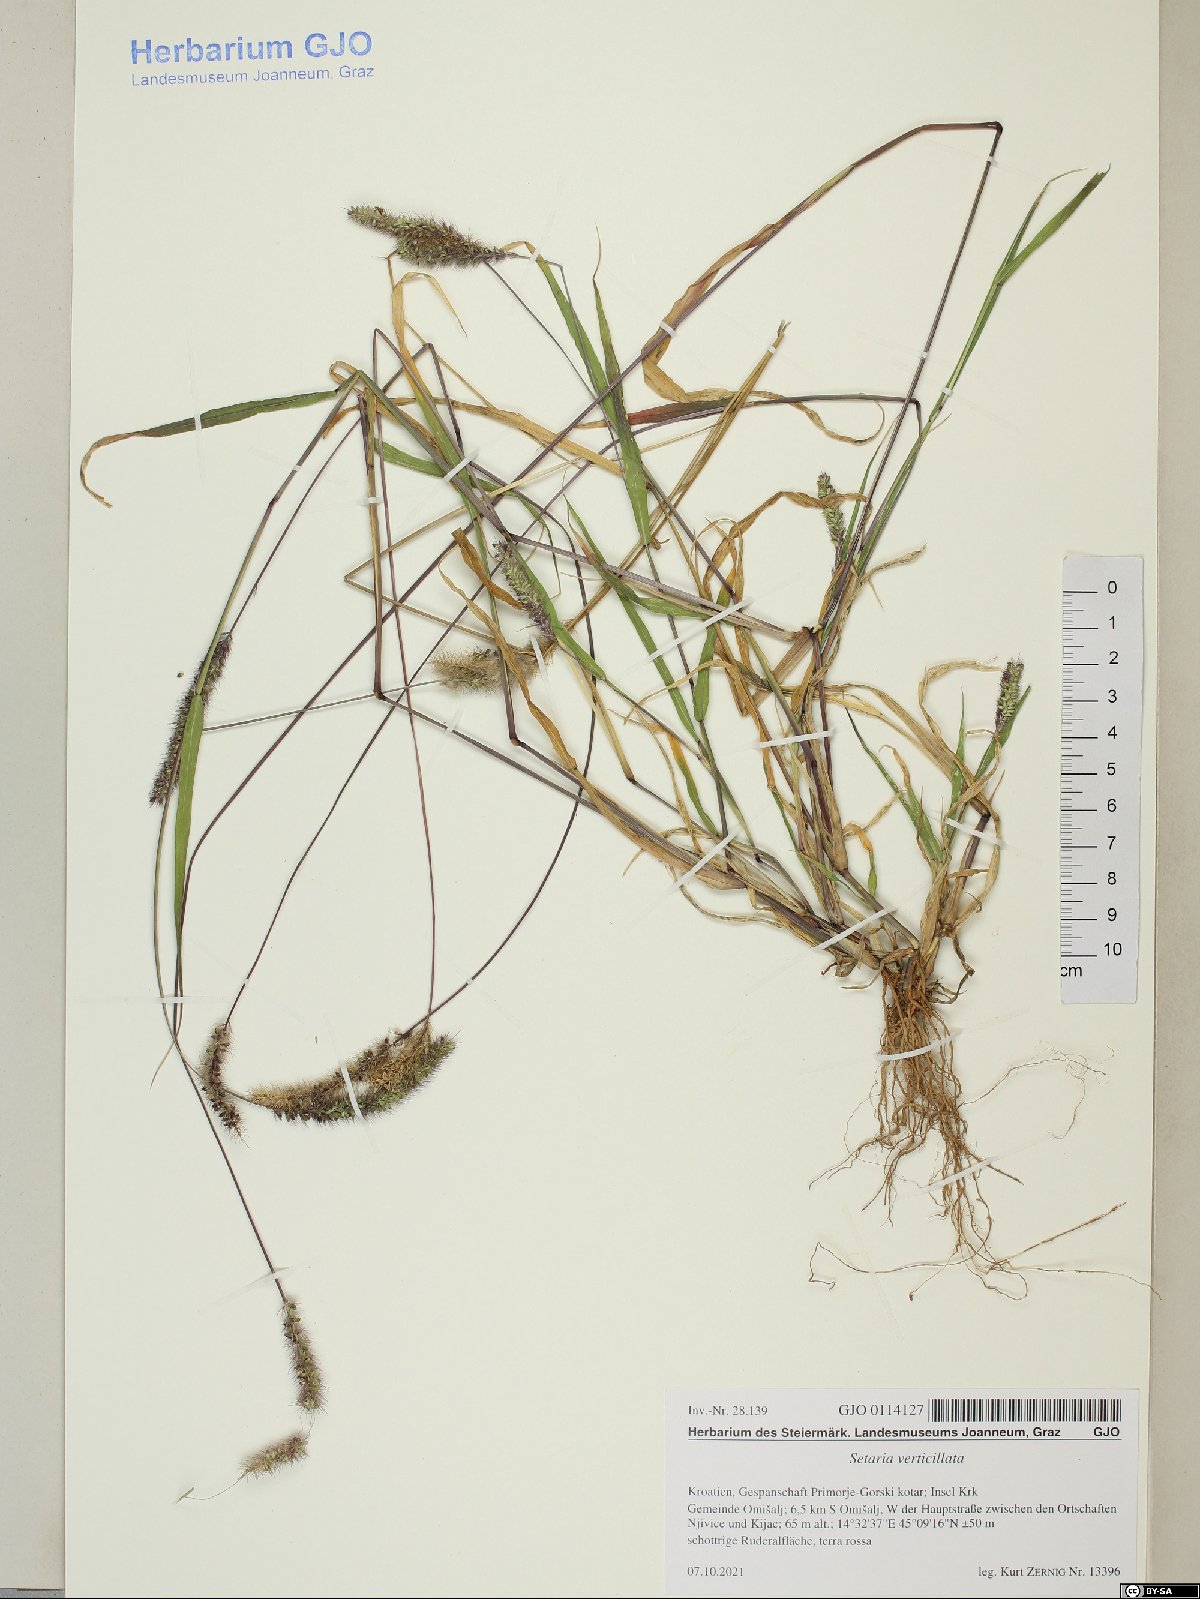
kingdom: Plantae
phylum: Tracheophyta
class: Liliopsida
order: Poales
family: Poaceae
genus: Setaria
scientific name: Setaria verticillata
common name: Hooked bristlegrass
